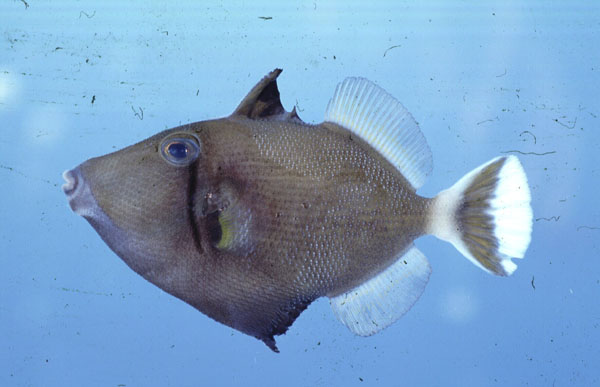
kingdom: Animalia
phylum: Chordata
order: Tetraodontiformes
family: Balistidae
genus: Sufflamen
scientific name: Sufflamen albicaudatum
